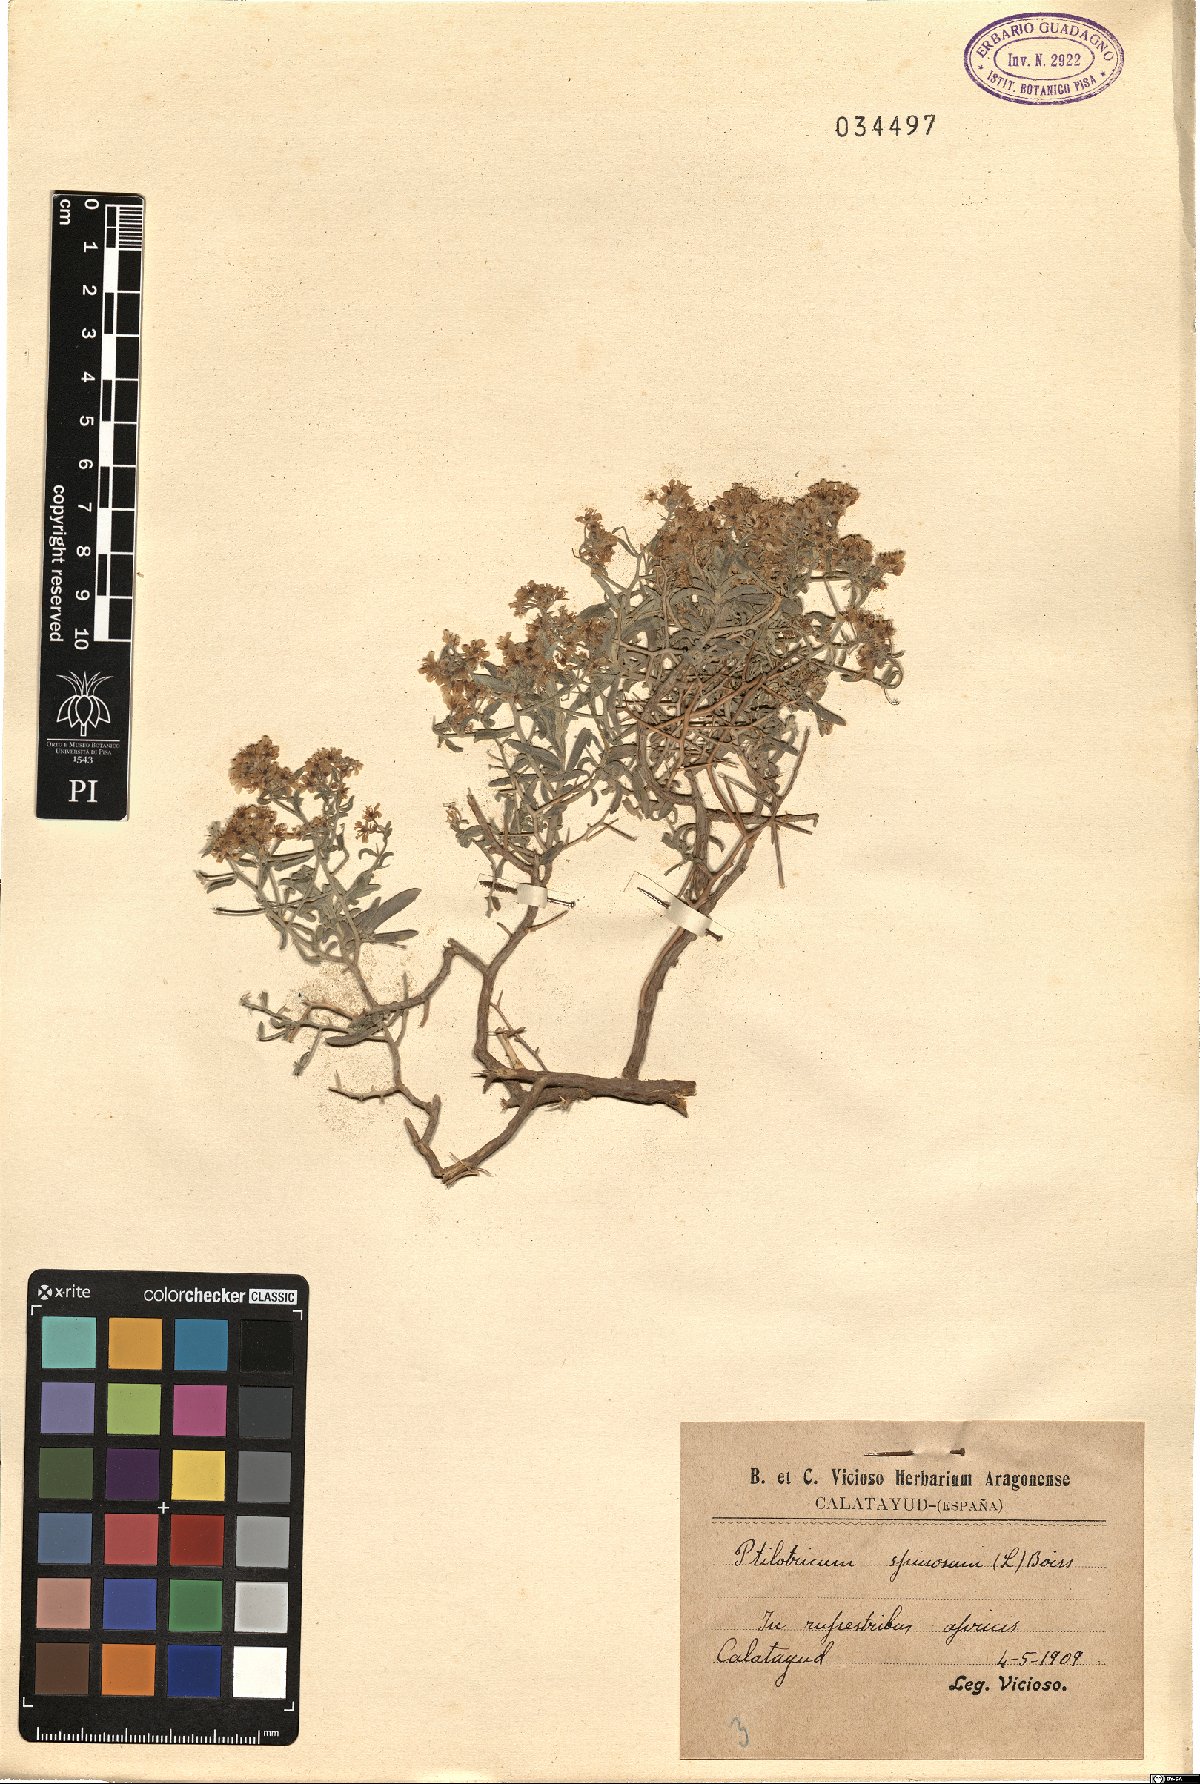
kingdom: Plantae
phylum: Tracheophyta
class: Magnoliopsida
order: Brassicales
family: Brassicaceae
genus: Hormathophylla
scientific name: Hormathophylla spinosa
